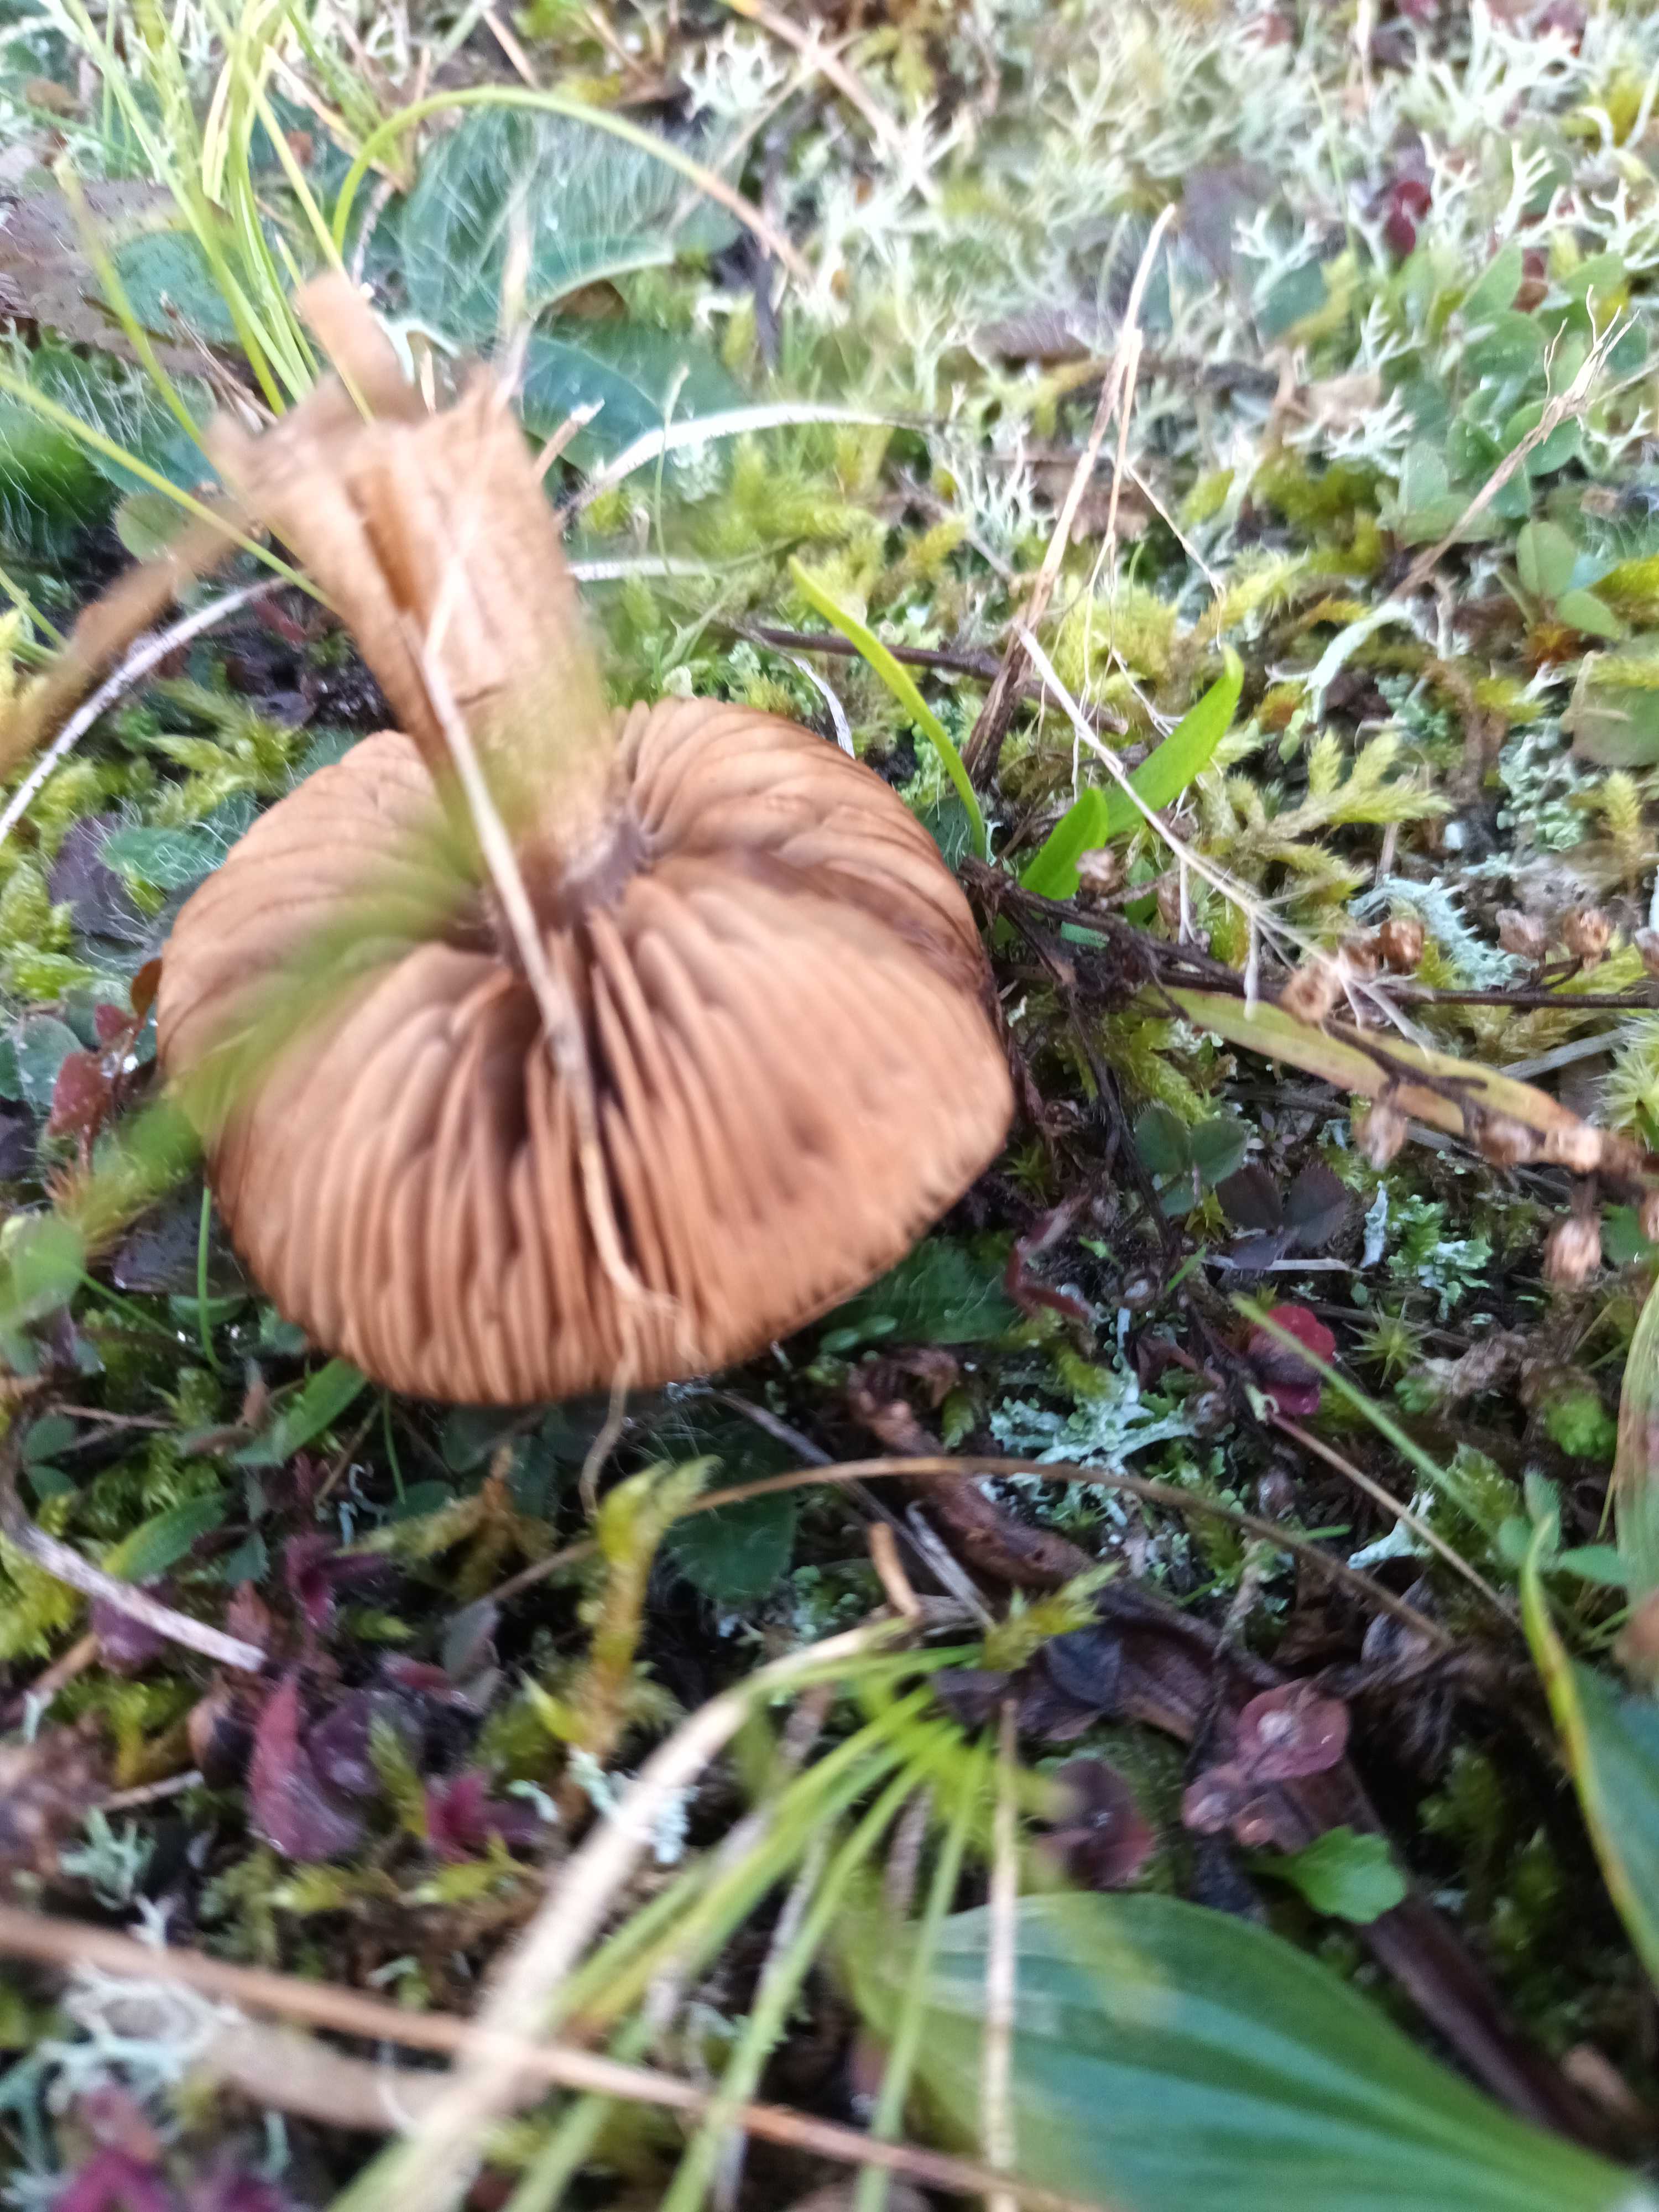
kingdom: Fungi
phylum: Basidiomycota
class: Agaricomycetes
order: Agaricales
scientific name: Agaricales
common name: champignonordenen
